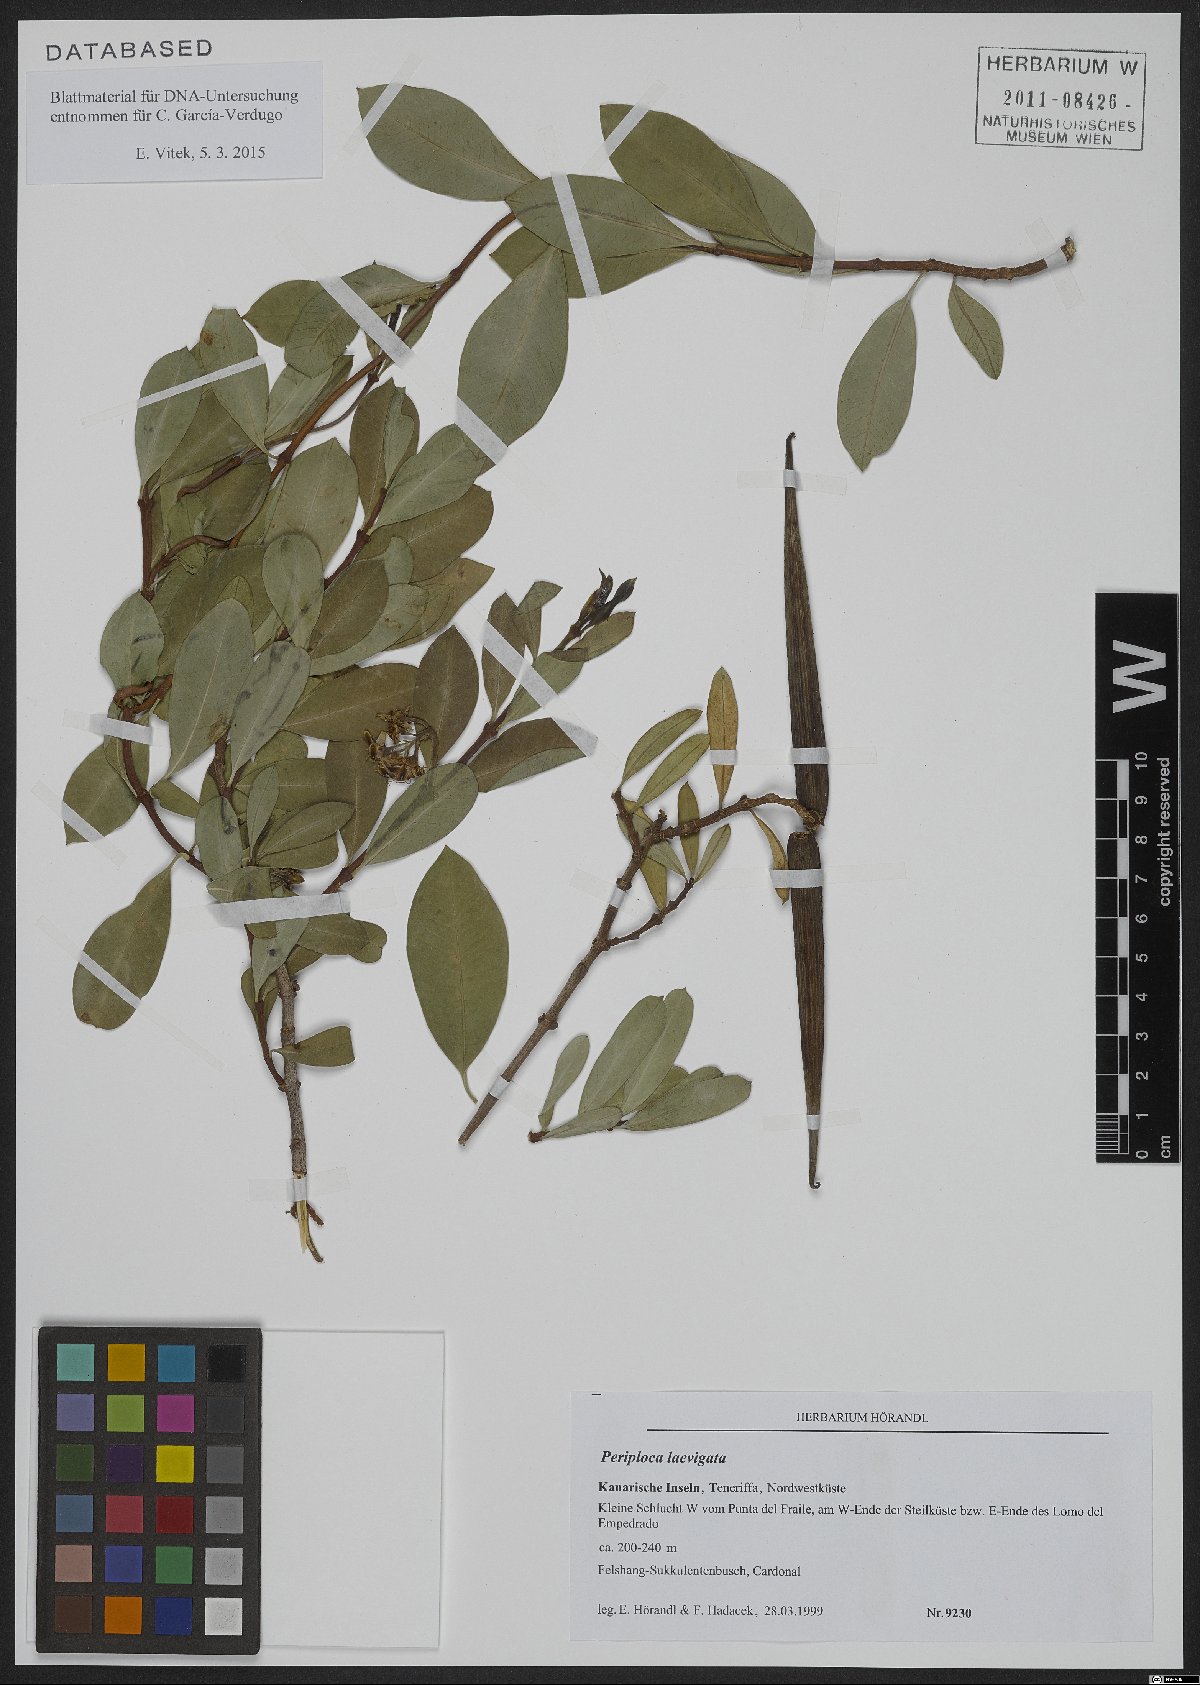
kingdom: Plantae
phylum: Tracheophyta
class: Magnoliopsida
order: Gentianales
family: Apocynaceae
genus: Periploca
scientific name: Periploca laevigata
